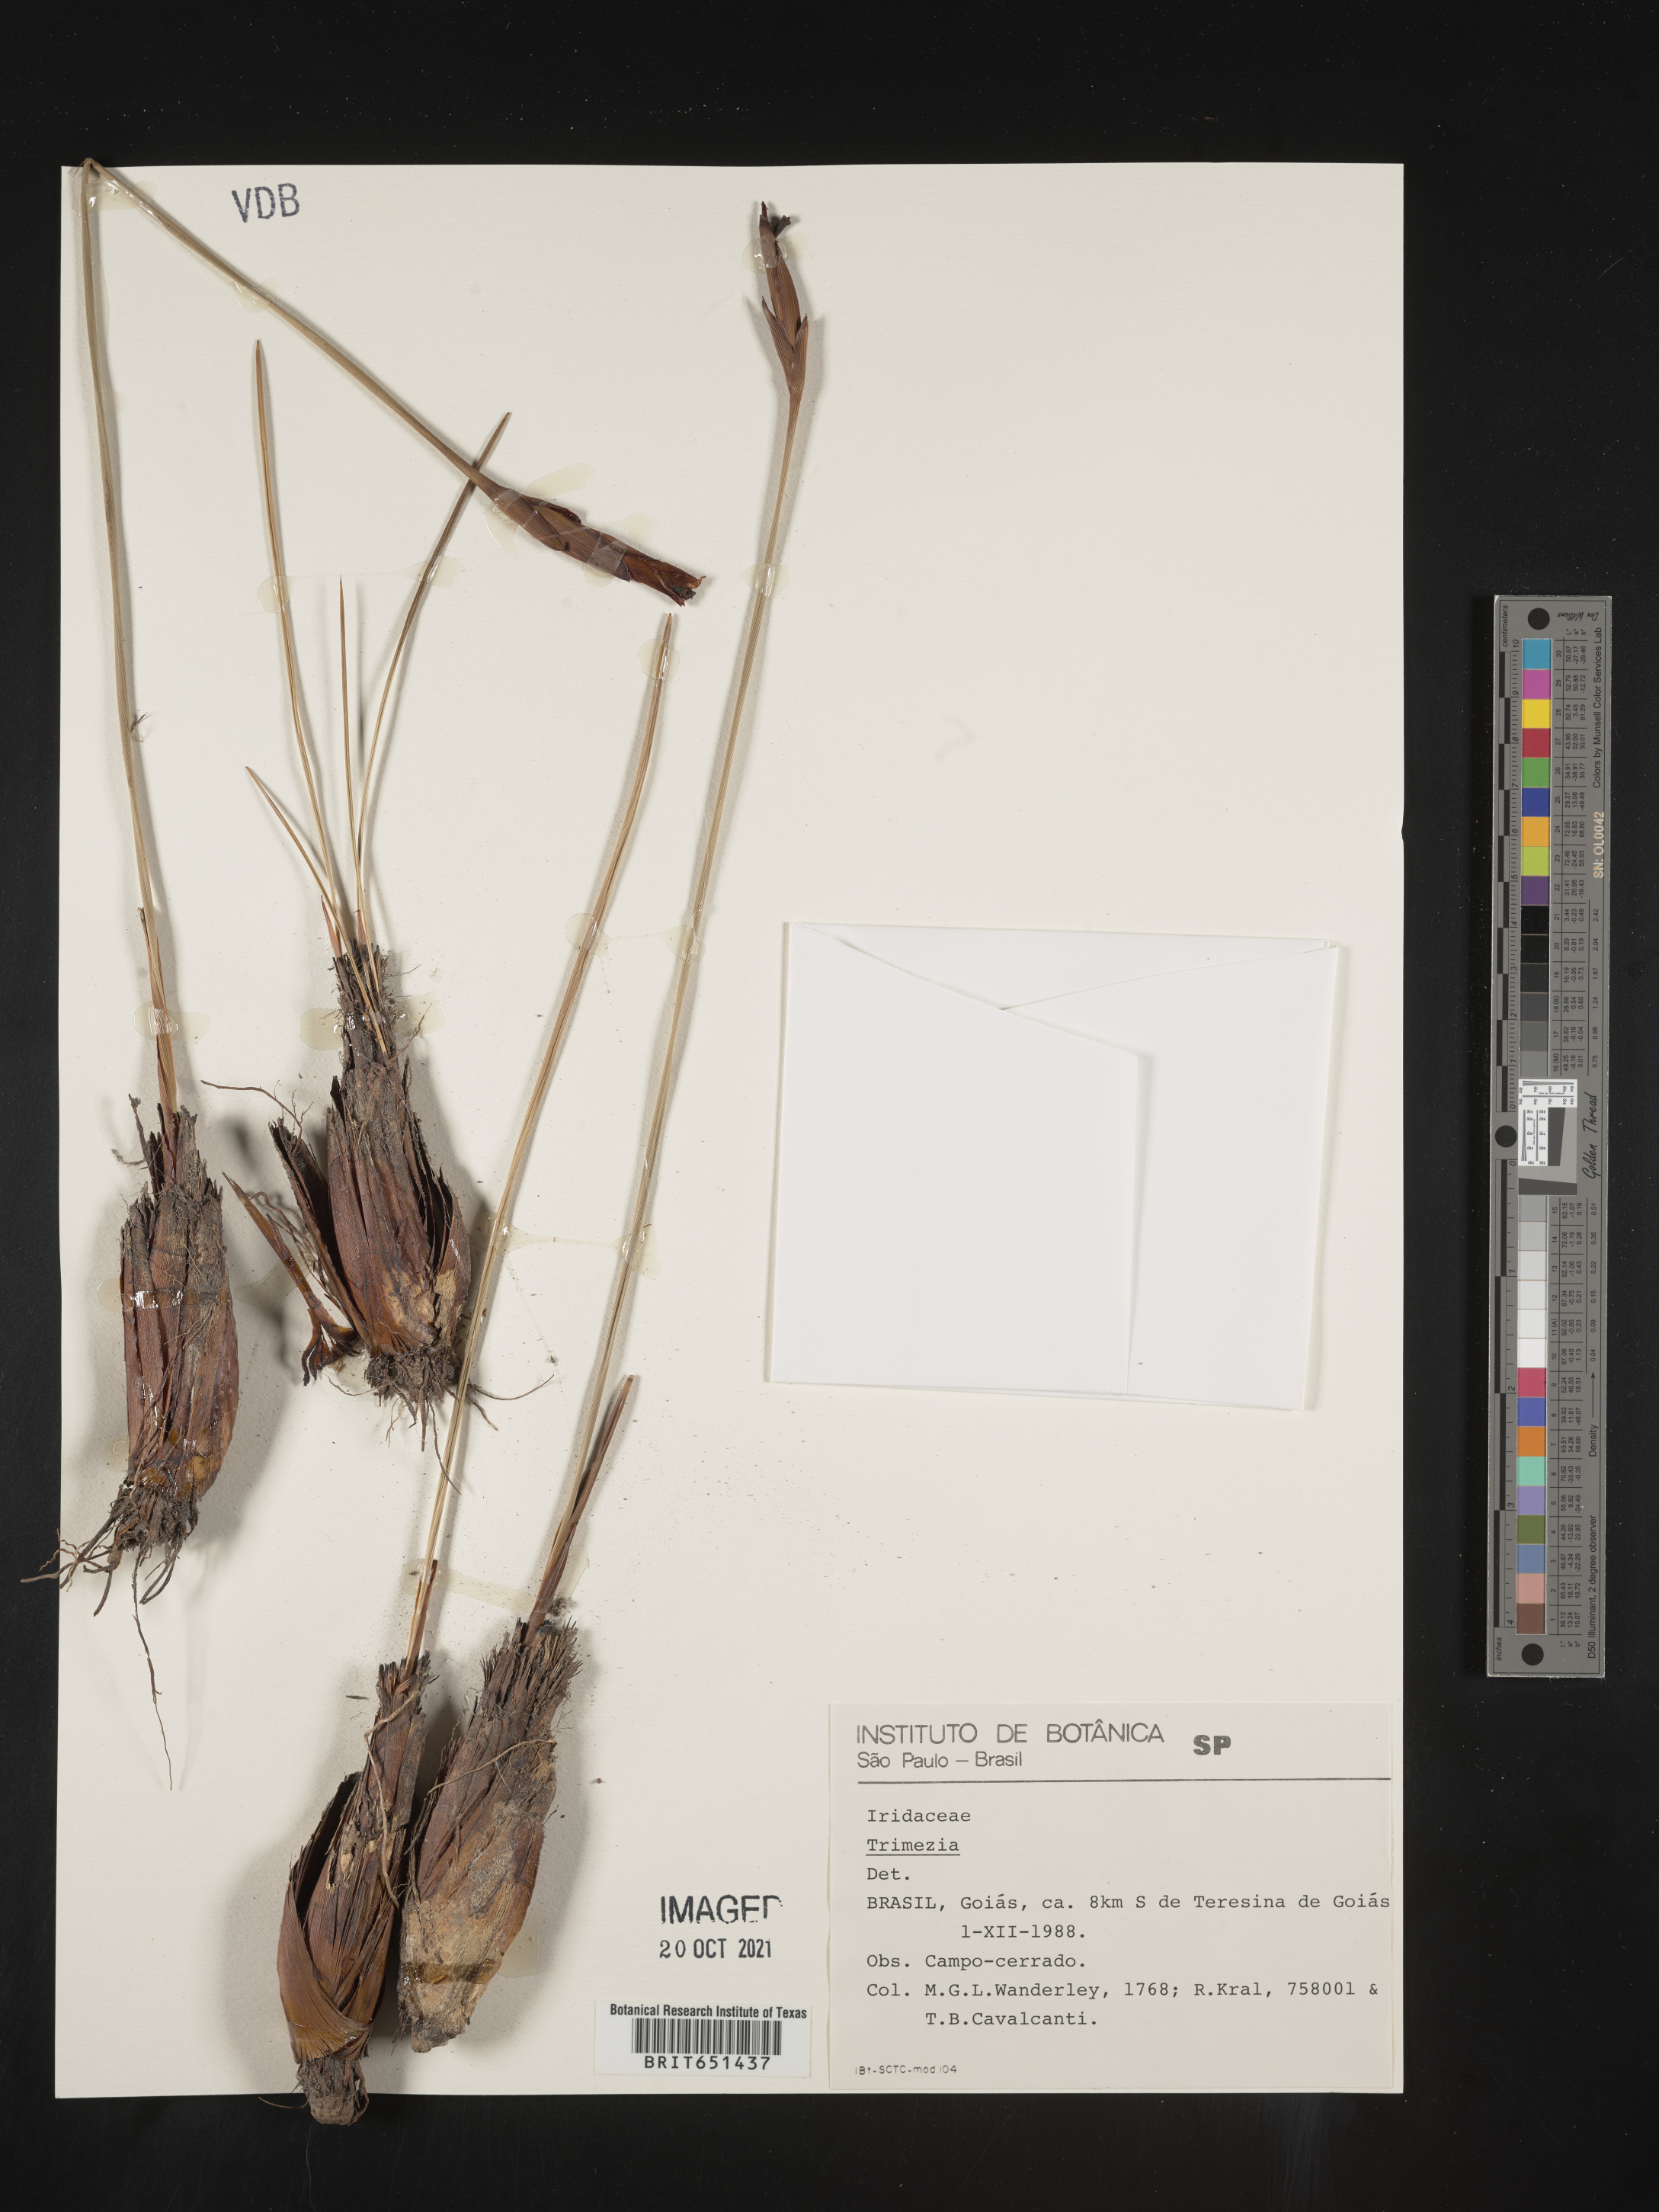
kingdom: Plantae
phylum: Tracheophyta
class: Liliopsida
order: Asparagales
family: Iridaceae
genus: Trimezia
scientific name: Trimezia
